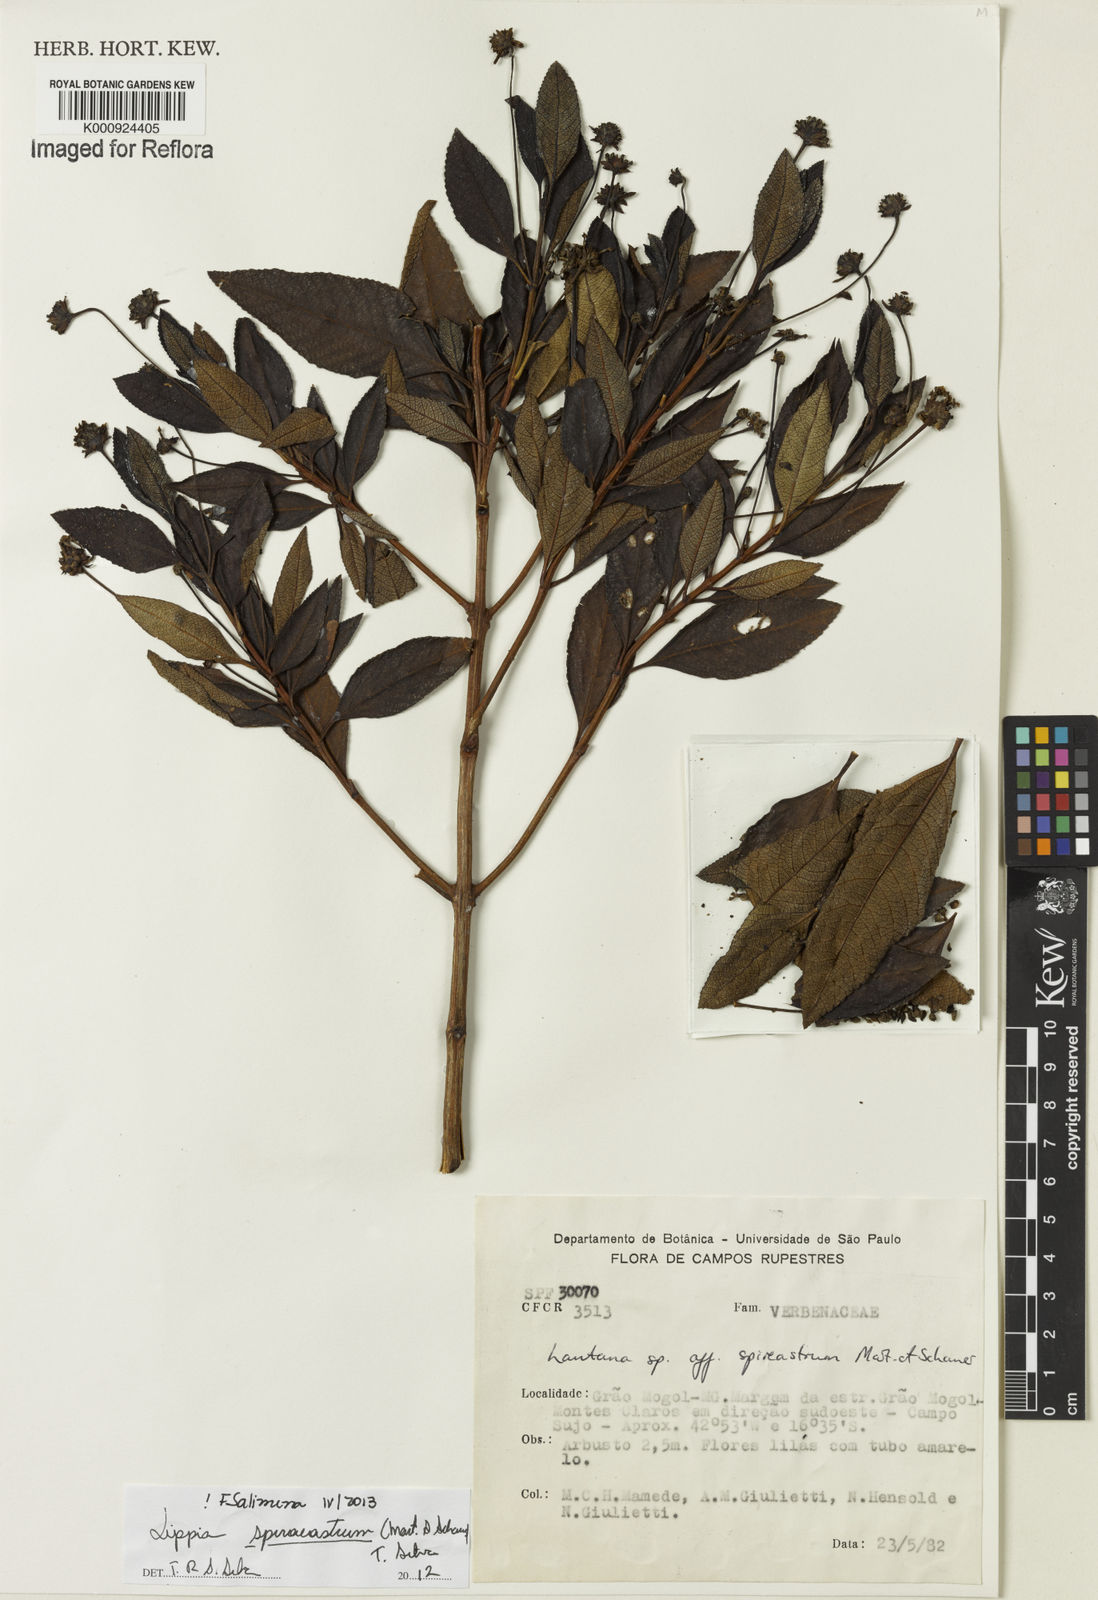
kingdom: Plantae
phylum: Tracheophyta
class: Magnoliopsida
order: Lamiales
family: Verbenaceae
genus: Lippia
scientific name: Lippia spiraeastrum
